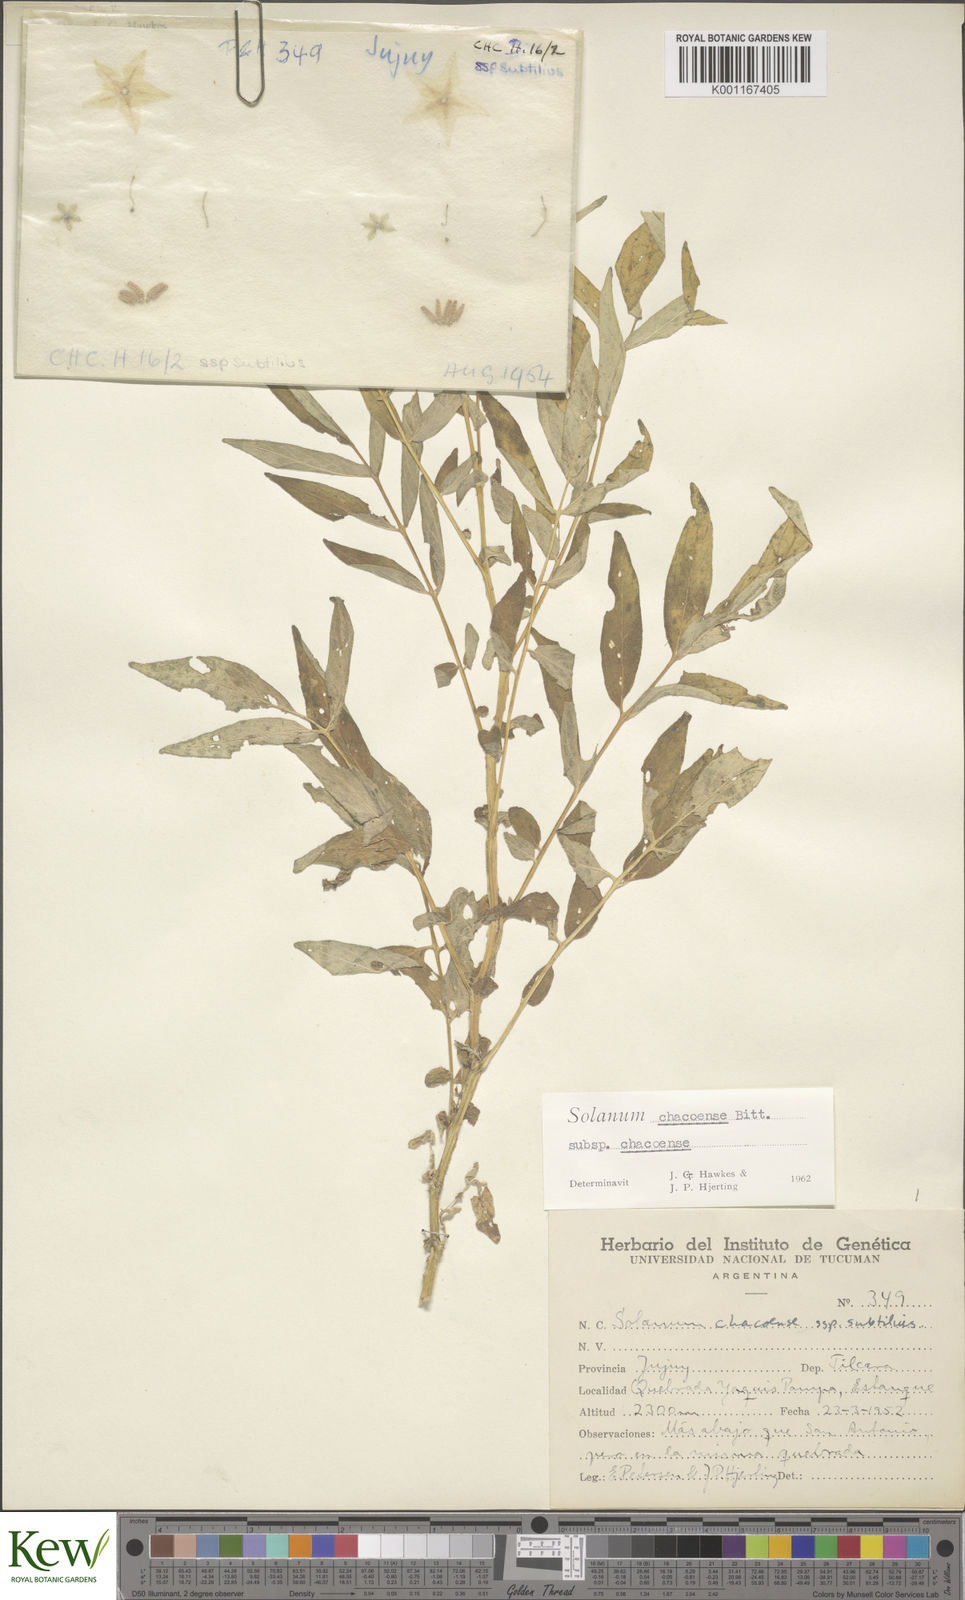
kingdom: Plantae
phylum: Tracheophyta
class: Magnoliopsida
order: Solanales
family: Solanaceae
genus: Solanum
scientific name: Solanum chacoense
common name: Chaco potato
